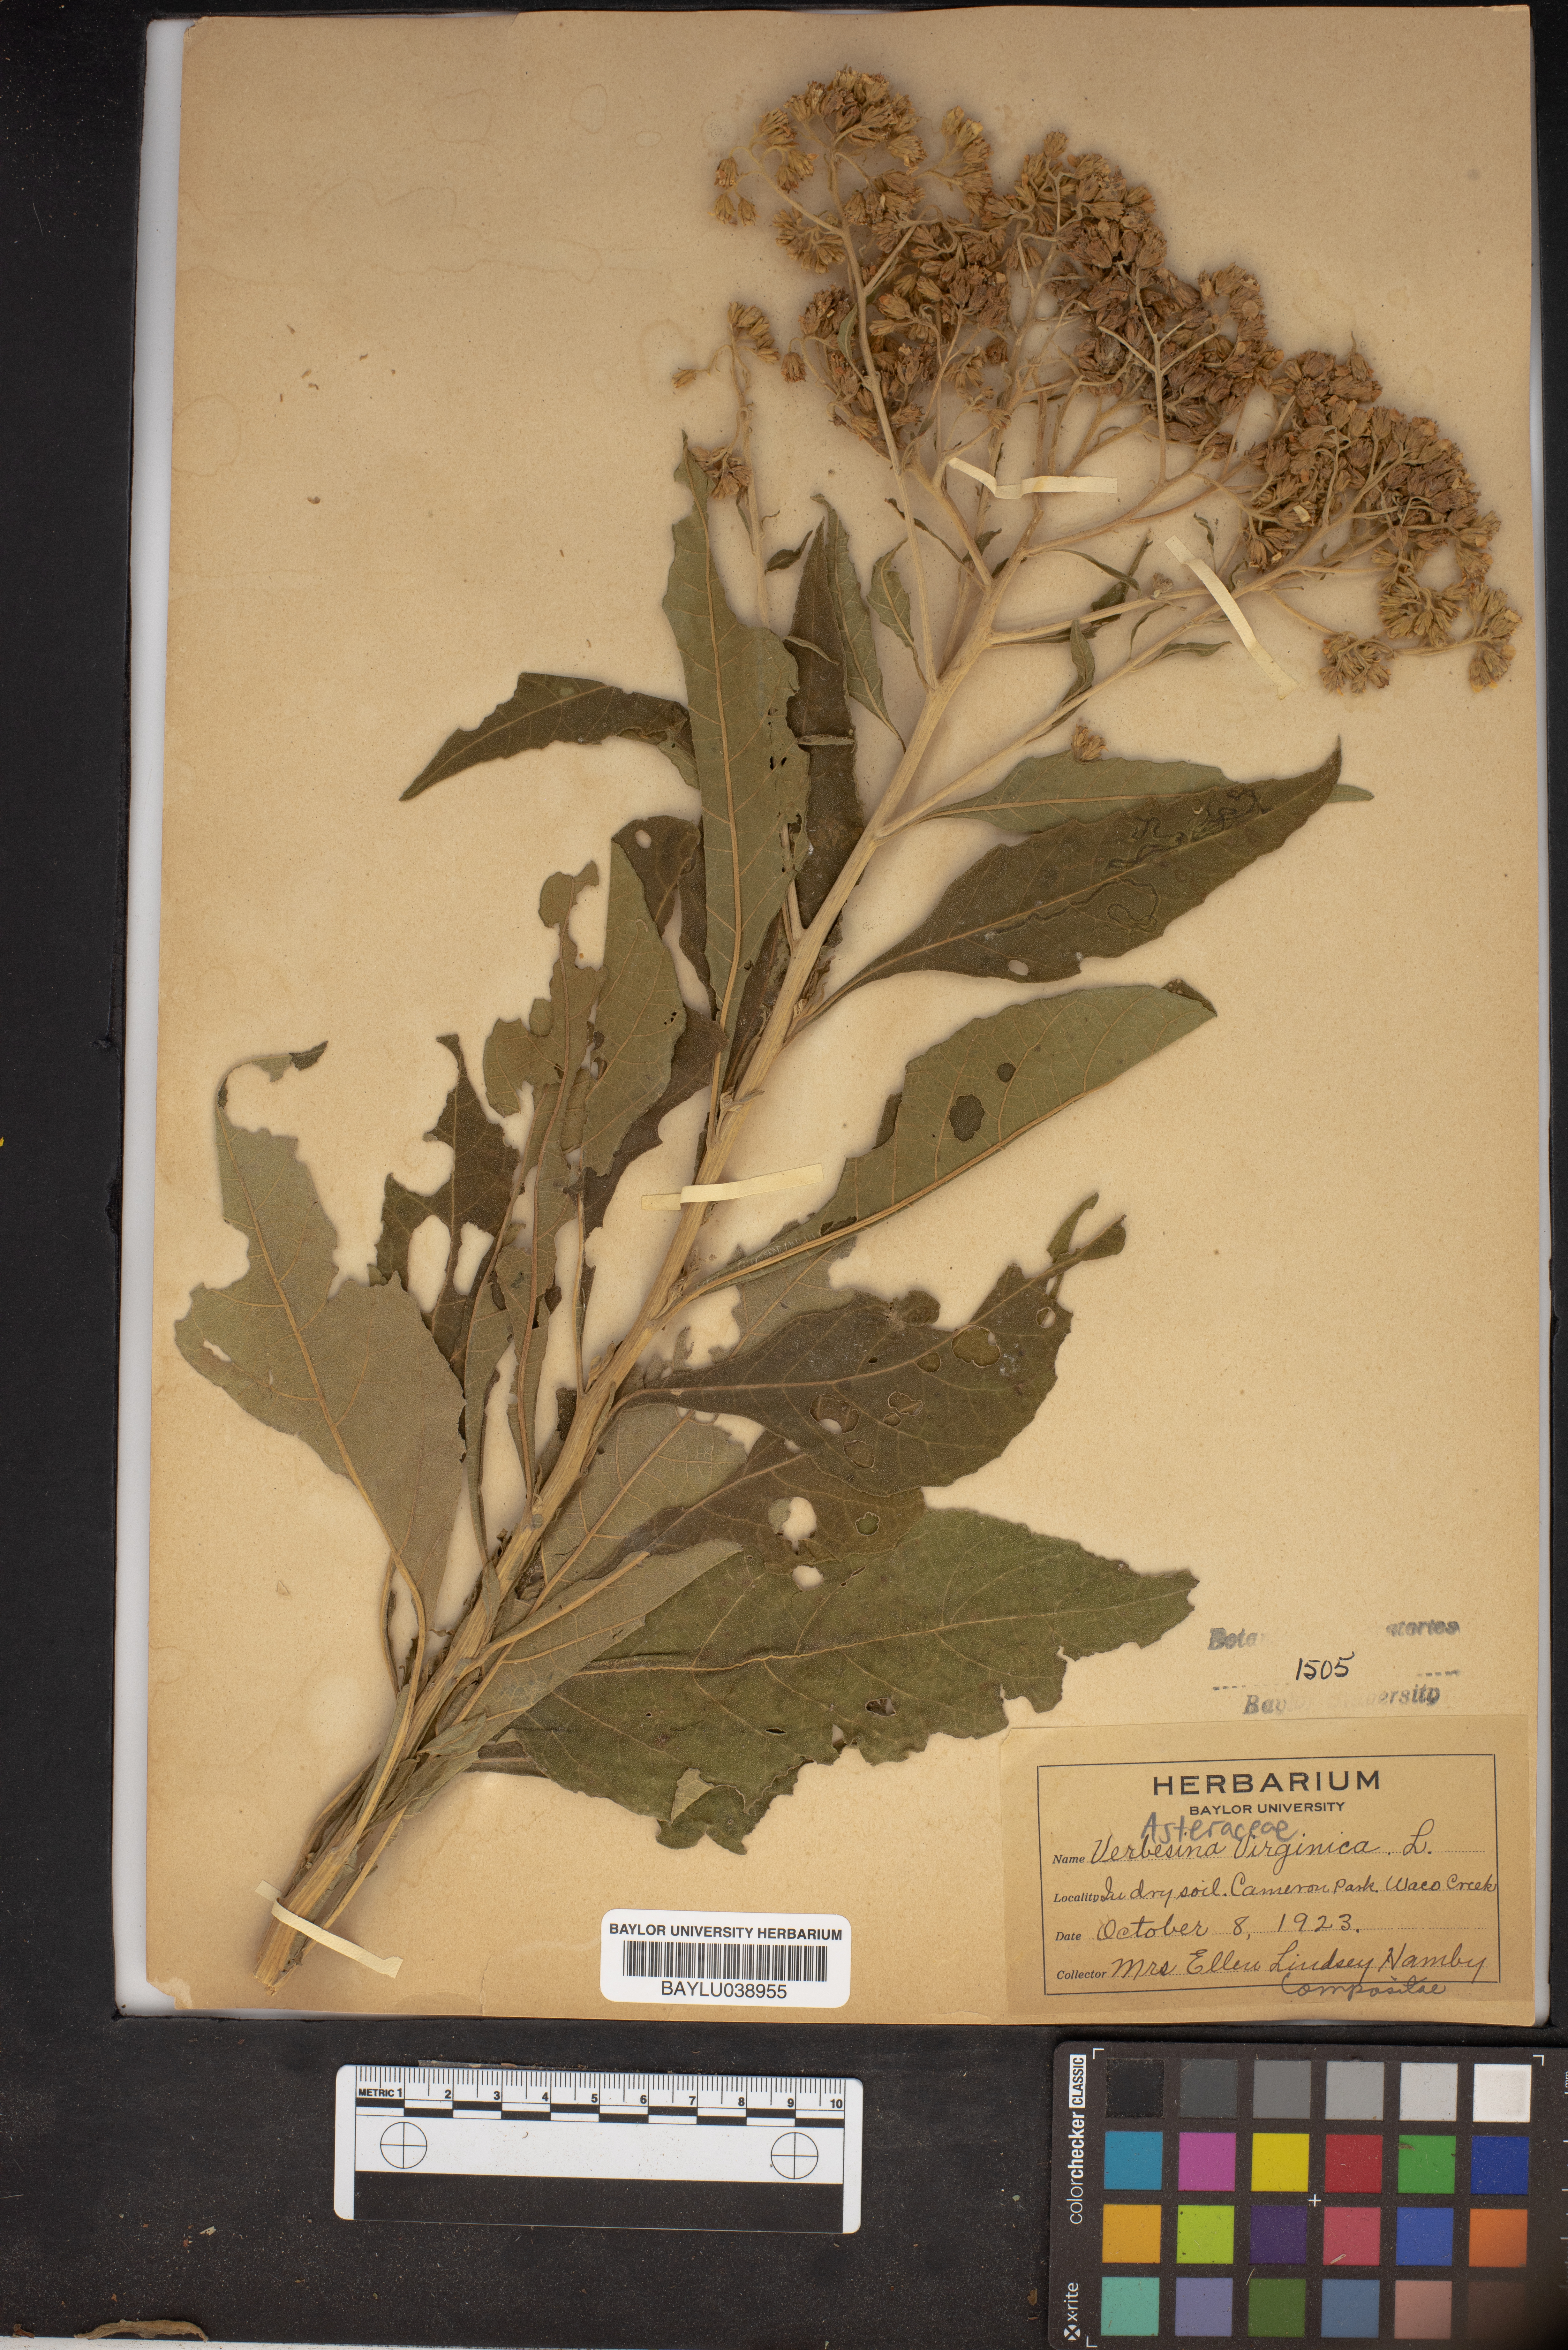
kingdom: Plantae
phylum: Tracheophyta
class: Magnoliopsida
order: Asterales
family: Asteraceae
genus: Verbesina
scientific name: Verbesina virginica
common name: Frostweed
